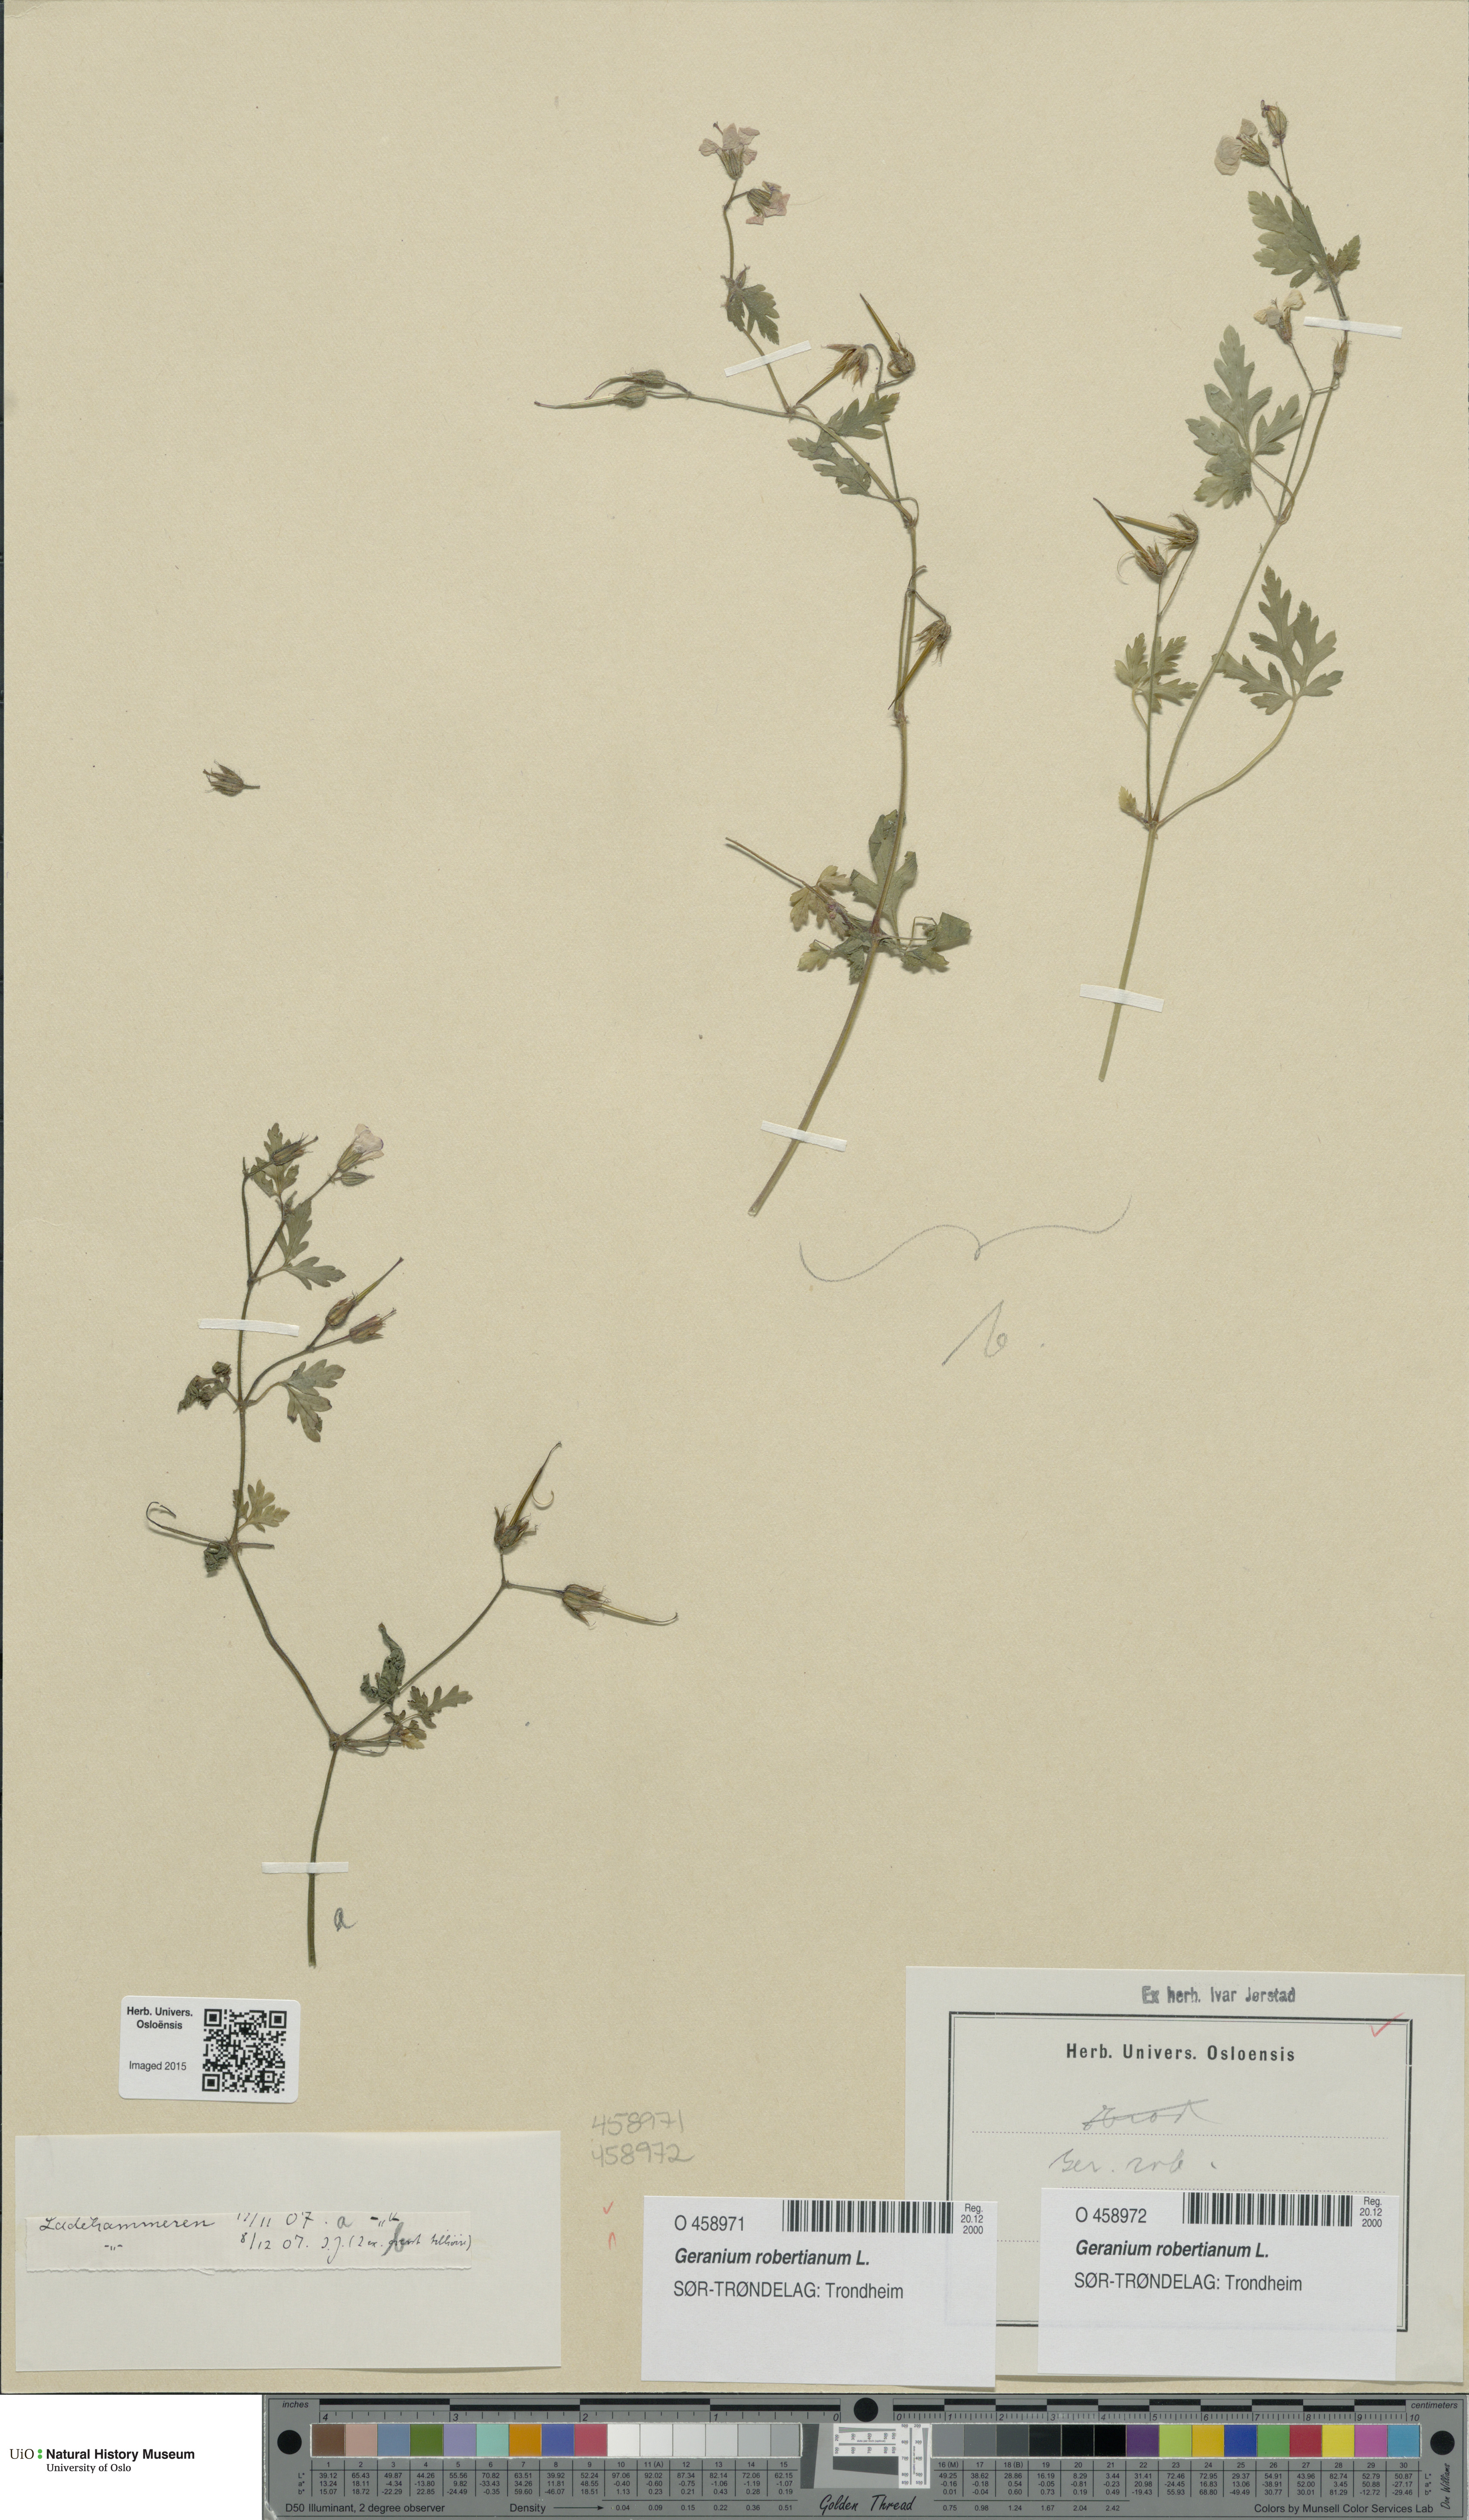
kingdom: Plantae
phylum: Tracheophyta
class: Magnoliopsida
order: Geraniales
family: Geraniaceae
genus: Geranium
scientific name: Geranium robertianum
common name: Herb-robert
